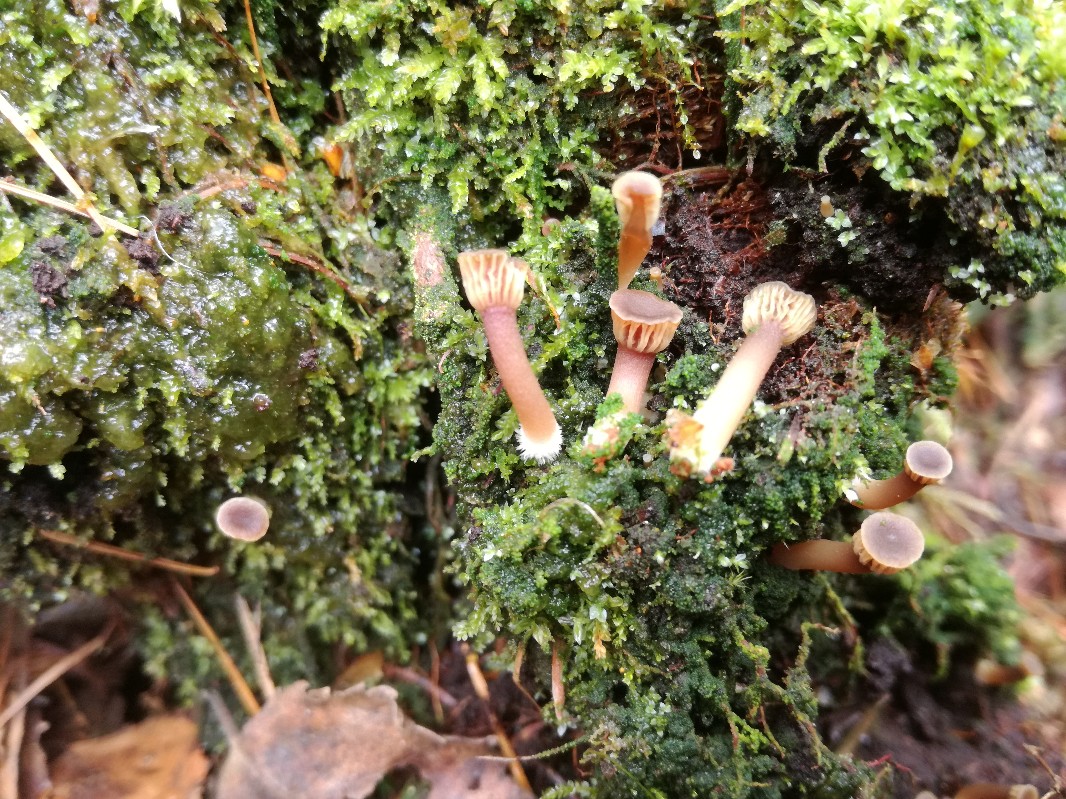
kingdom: Fungi
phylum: Basidiomycota
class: Agaricomycetes
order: Agaricales
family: Hygrophoraceae
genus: Lichenomphalia
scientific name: Lichenomphalia umbellifera
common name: tørve-lavhat
